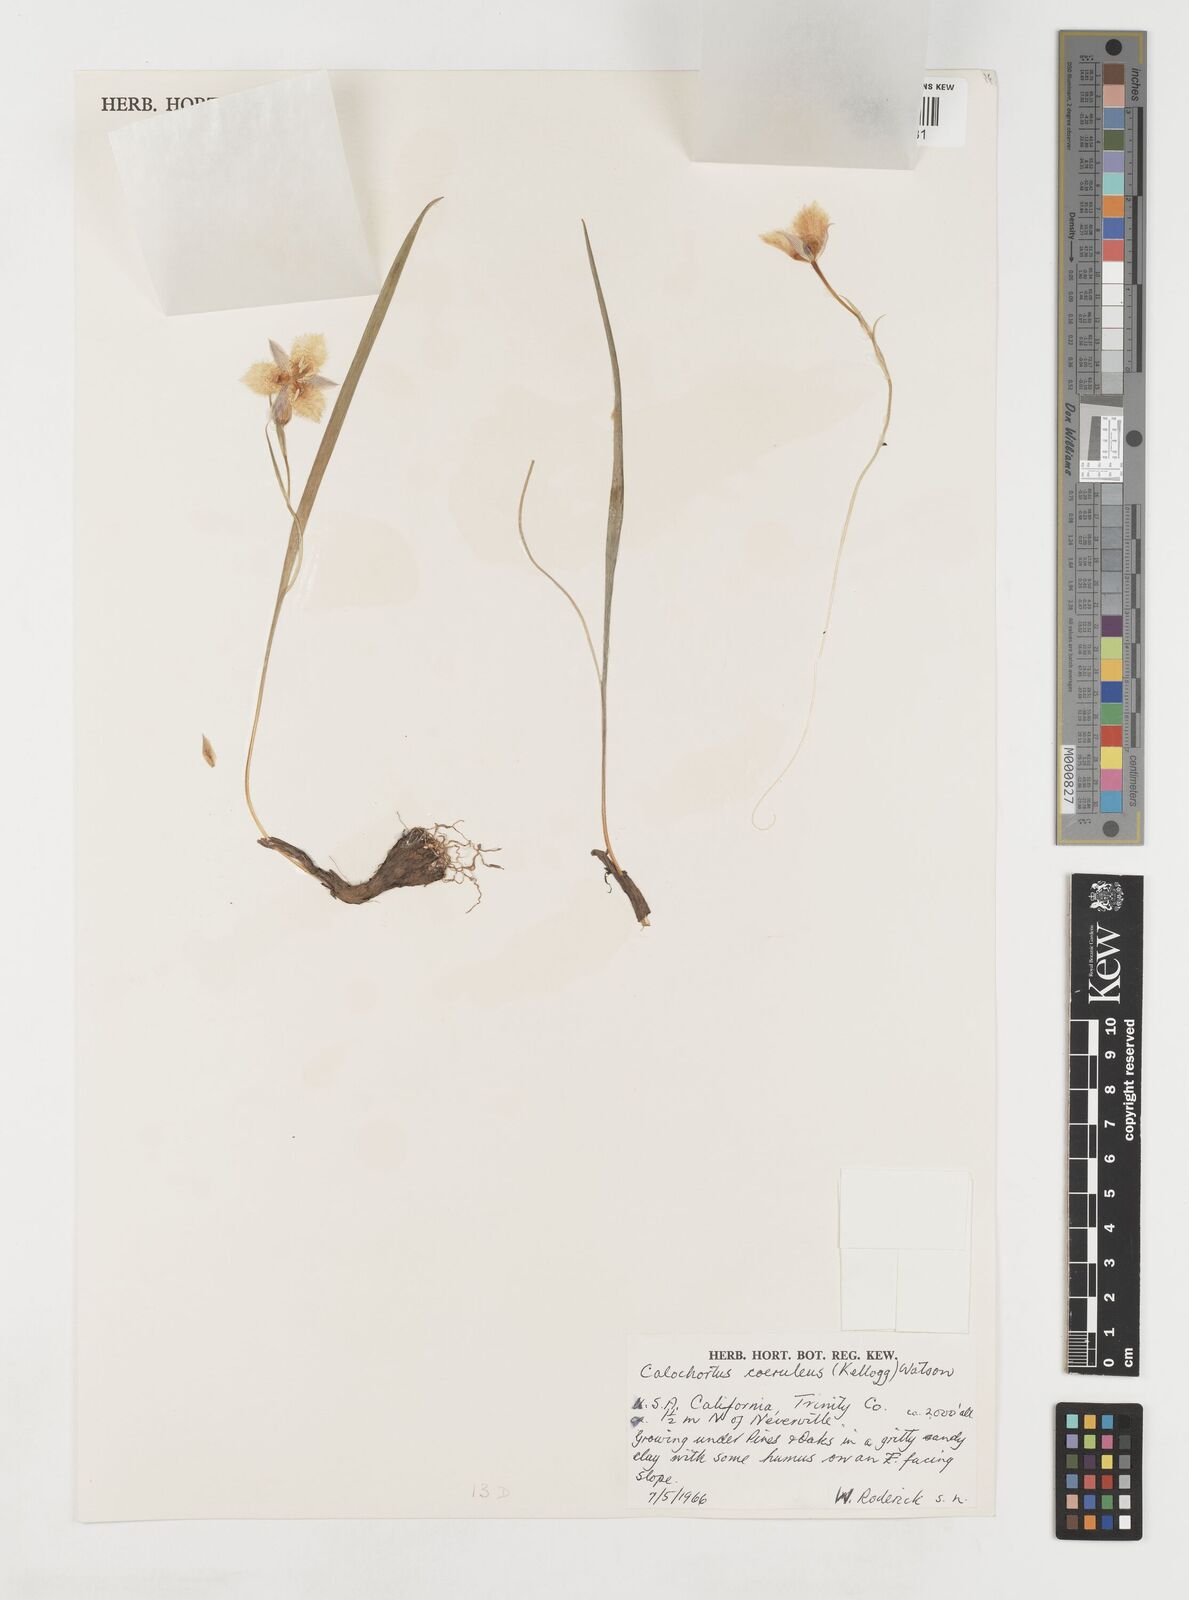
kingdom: Plantae
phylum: Tracheophyta
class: Liliopsida
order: Liliales
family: Liliaceae
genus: Calochortus
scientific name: Calochortus coeruleus
